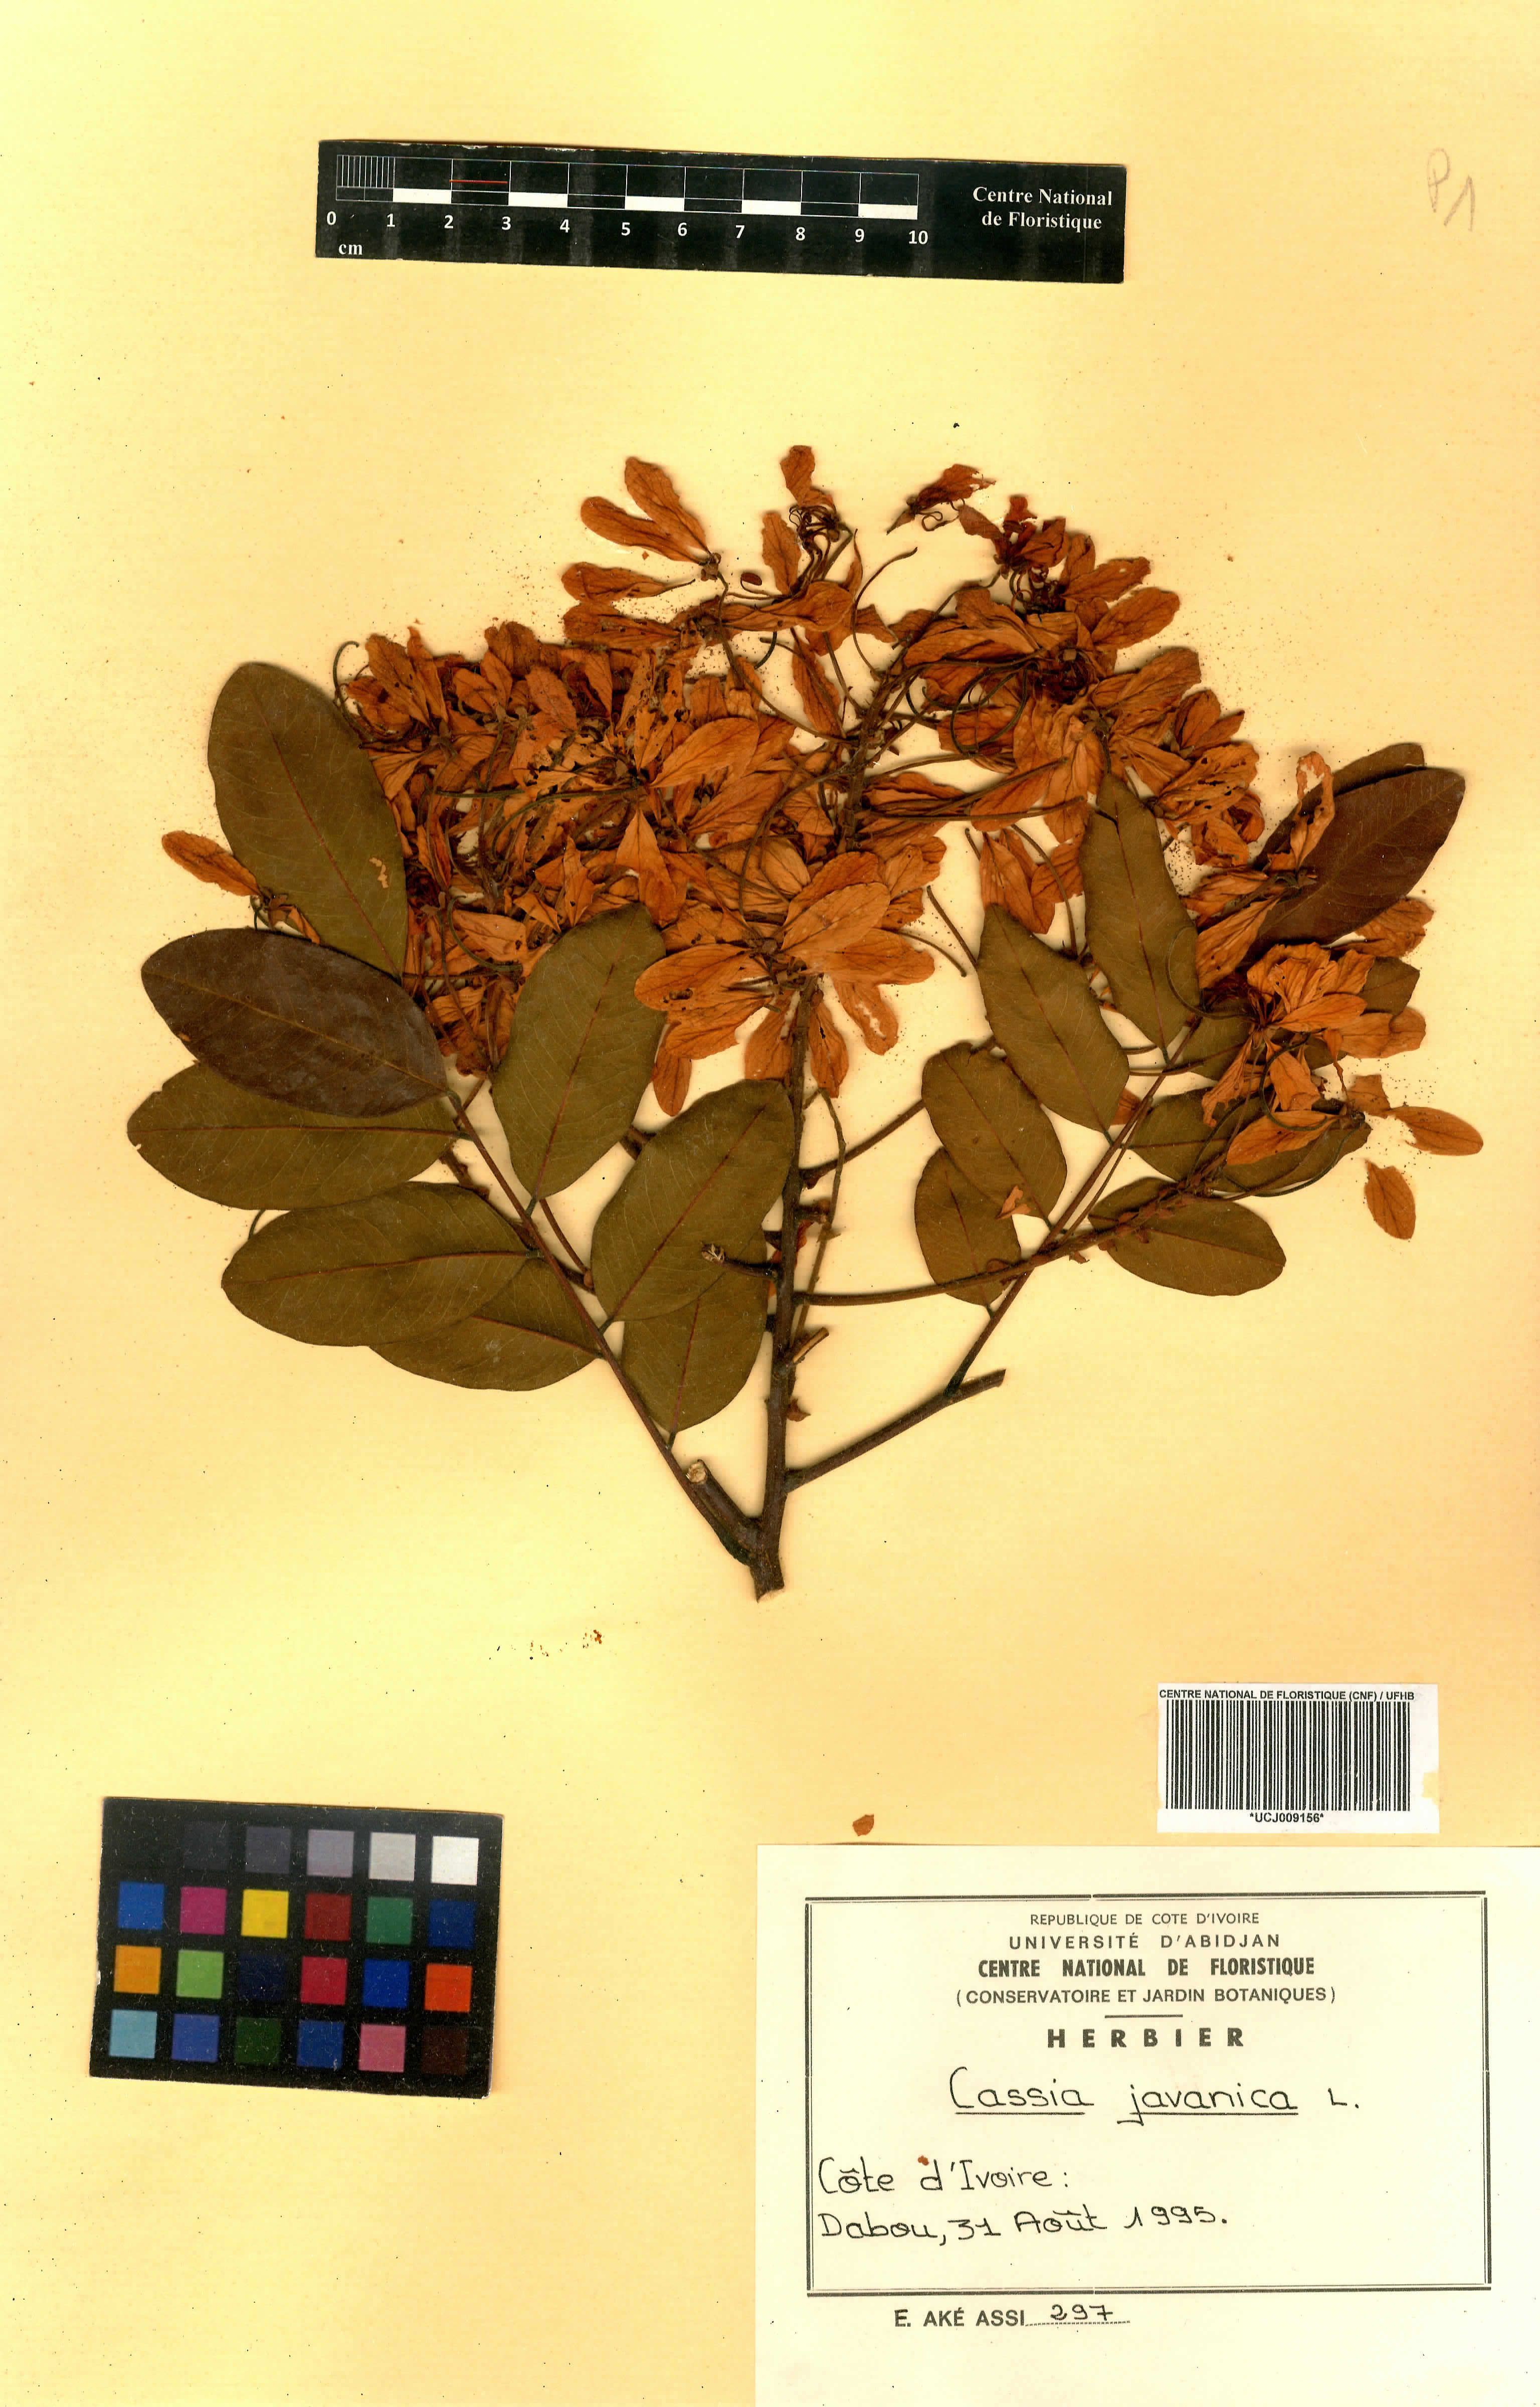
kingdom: Plantae
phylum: Tracheophyta
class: Magnoliopsida
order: Fabales
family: Fabaceae
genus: Cassia
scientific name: Cassia javanica
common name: Apple blossom
